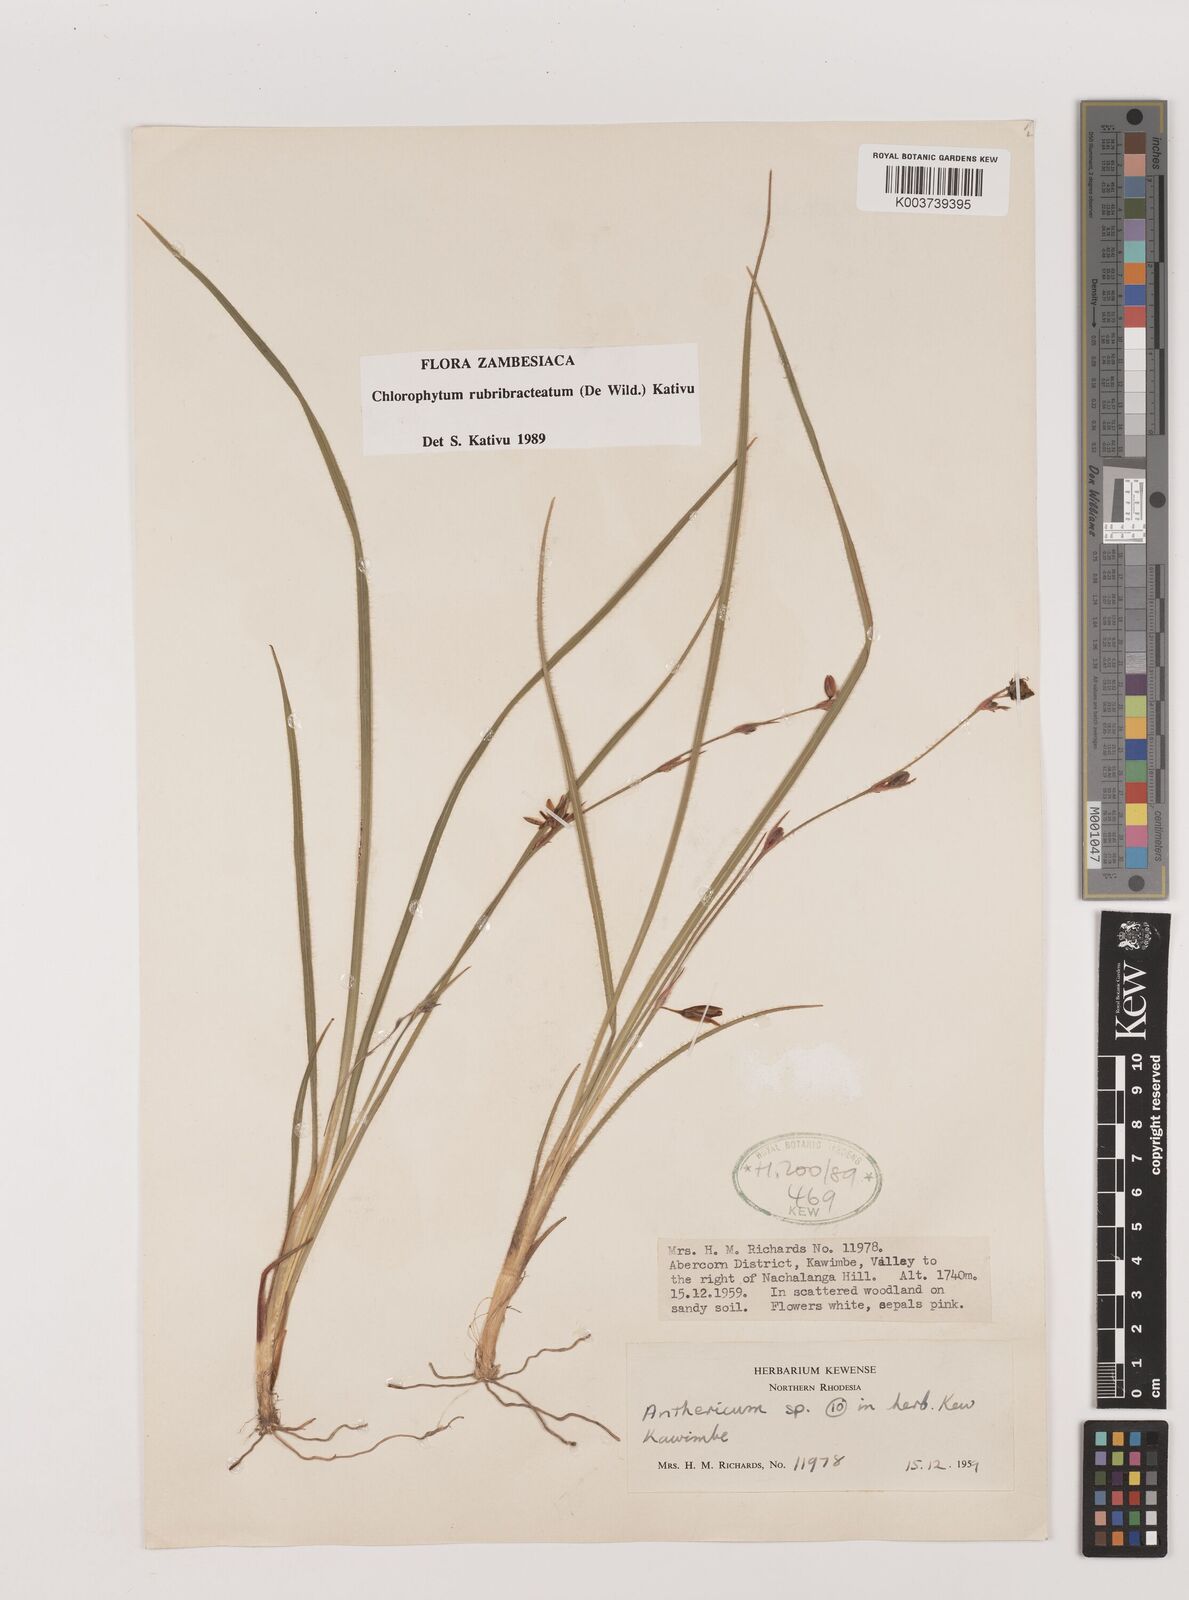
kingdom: Plantae
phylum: Tracheophyta
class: Liliopsida
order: Asparagales
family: Asparagaceae
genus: Chlorophytum
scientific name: Chlorophytum rubribracteatum
